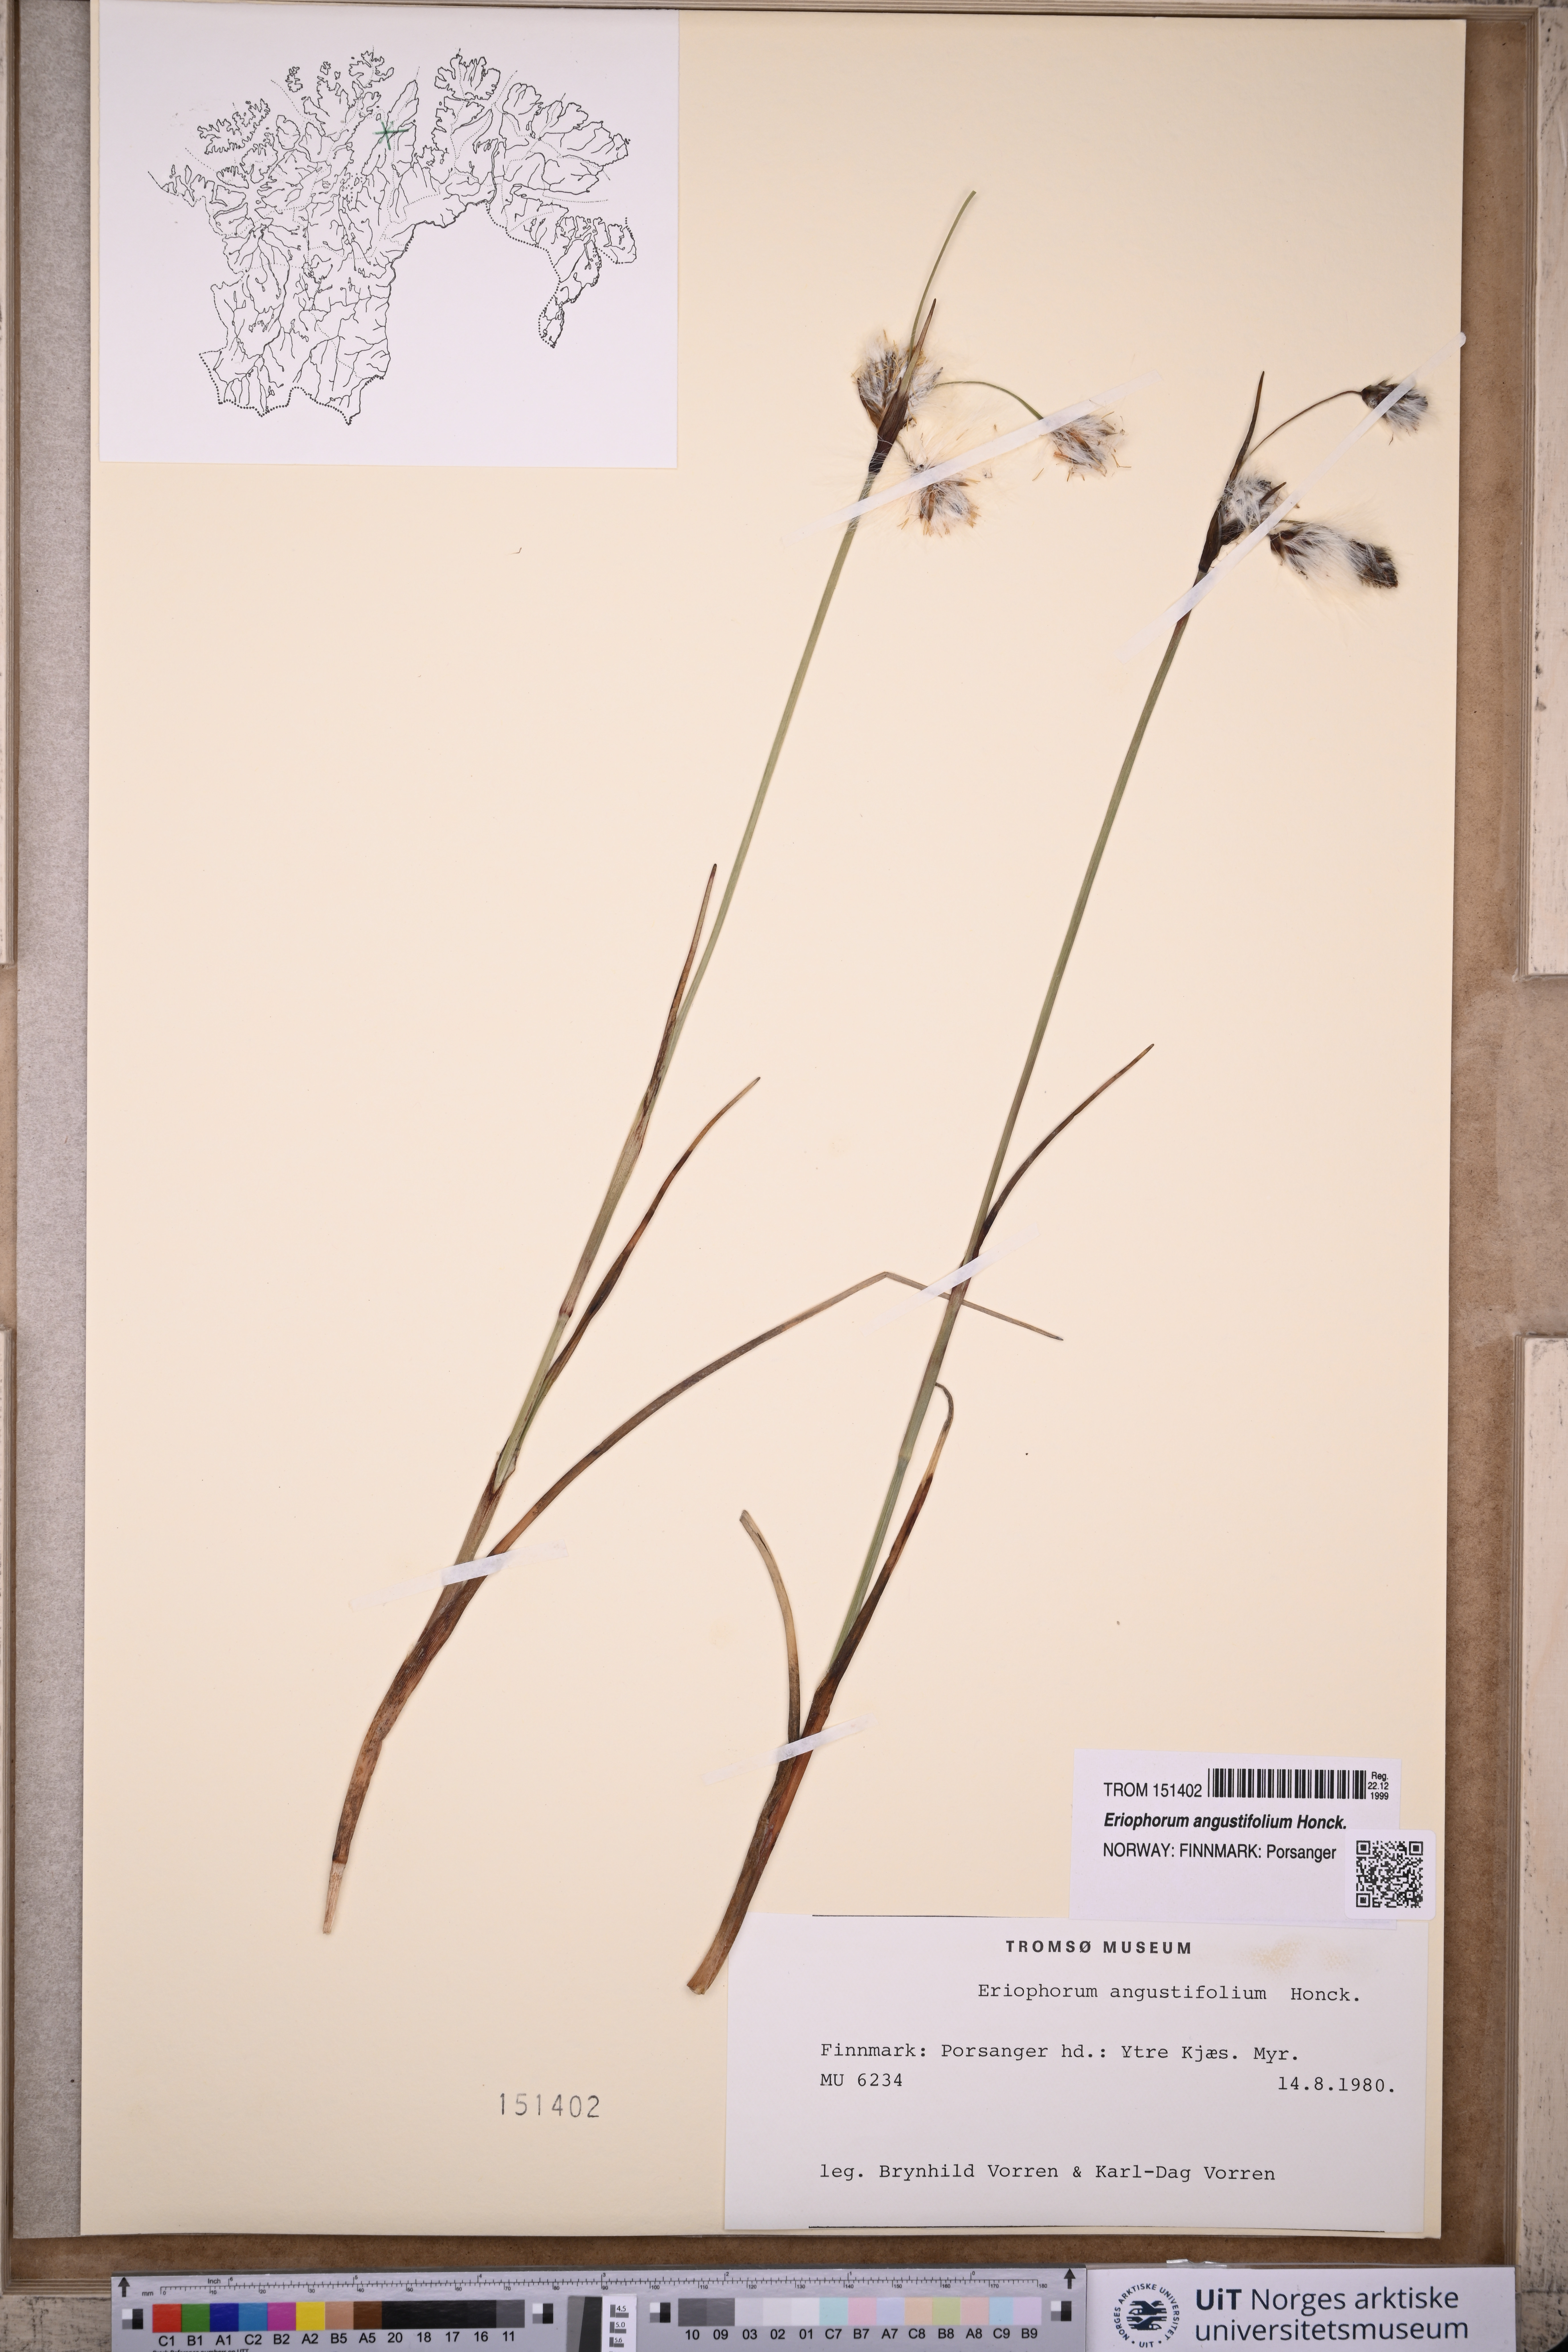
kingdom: Plantae
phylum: Tracheophyta
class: Liliopsida
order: Poales
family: Cyperaceae
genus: Eriophorum
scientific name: Eriophorum angustifolium
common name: Common cottongrass
